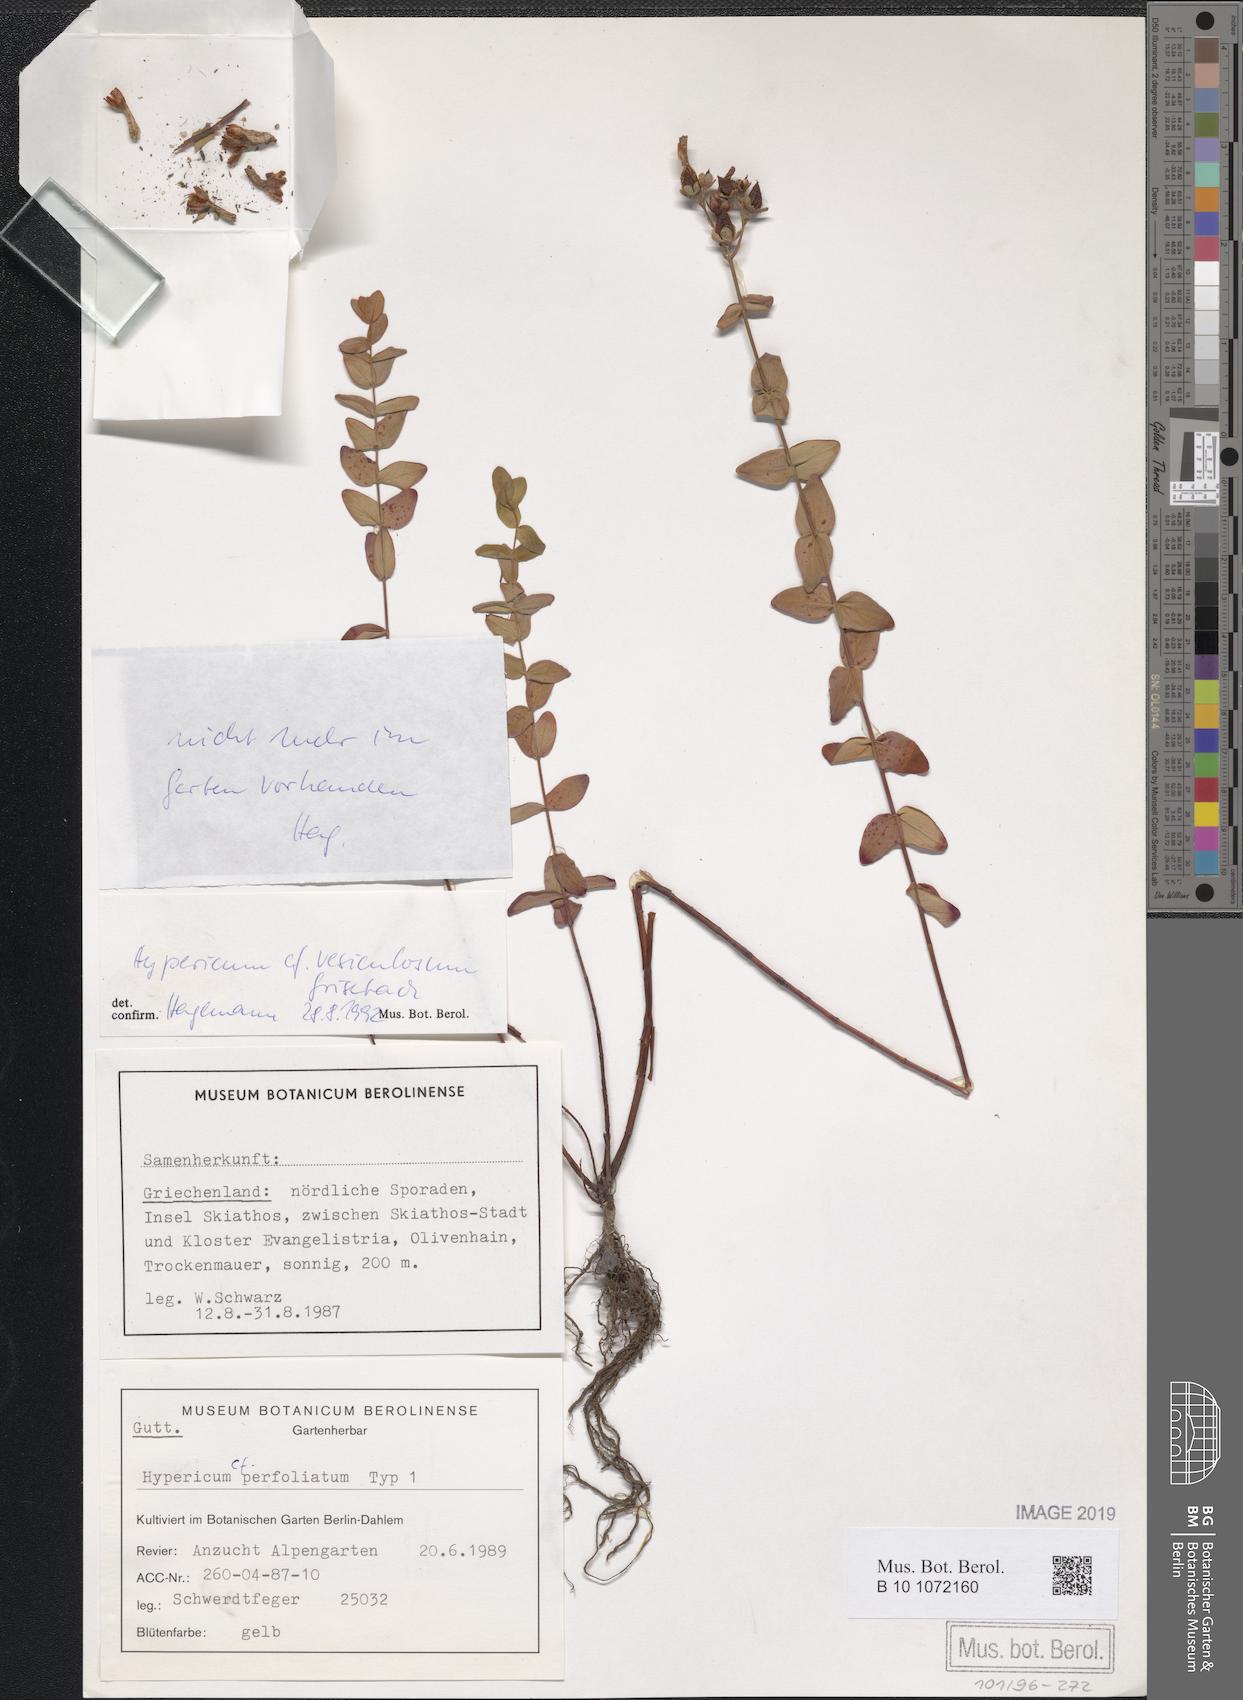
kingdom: Plantae
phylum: Tracheophyta
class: Magnoliopsida
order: Malpighiales
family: Hypericaceae
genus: Hypericum
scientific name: Hypericum vesiculosum
